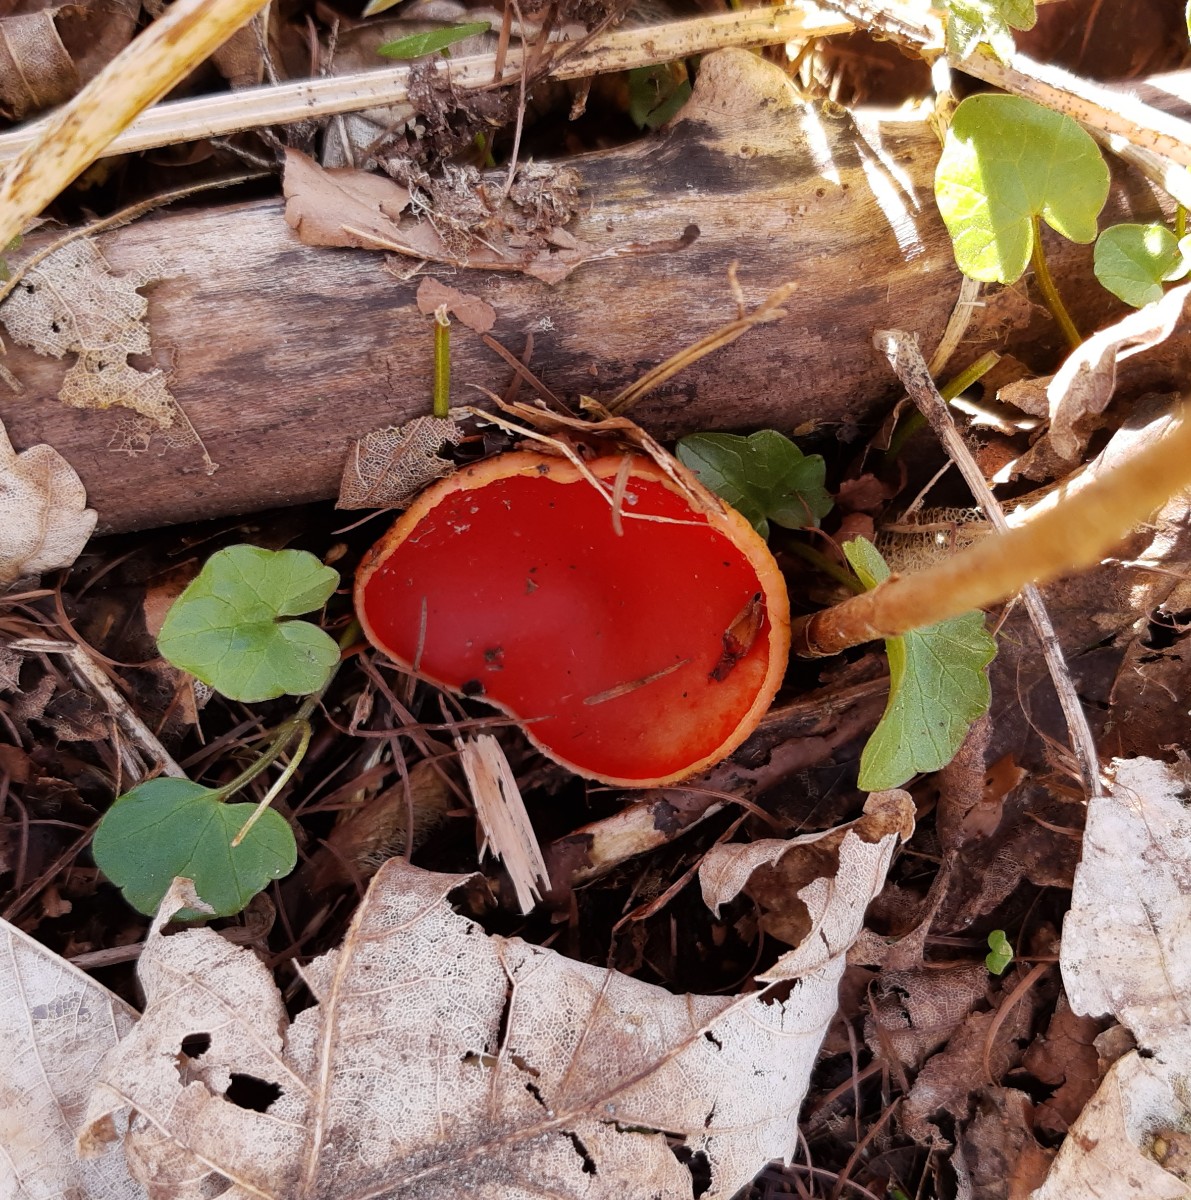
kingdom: Fungi
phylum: Ascomycota
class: Pezizomycetes
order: Pezizales
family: Sarcoscyphaceae
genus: Sarcoscypha
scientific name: Sarcoscypha austriaca
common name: krølhåret pragtbæger
